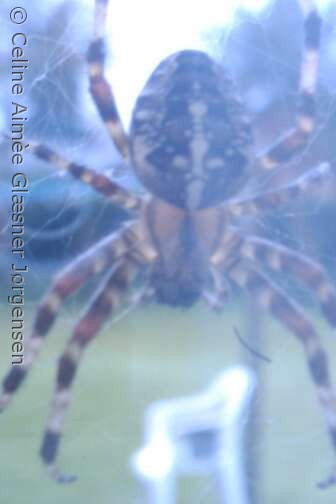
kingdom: Animalia
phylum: Arthropoda
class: Arachnida
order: Araneae
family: Araneidae
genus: Araneus
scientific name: Araneus diadematus
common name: Korsedderkop
